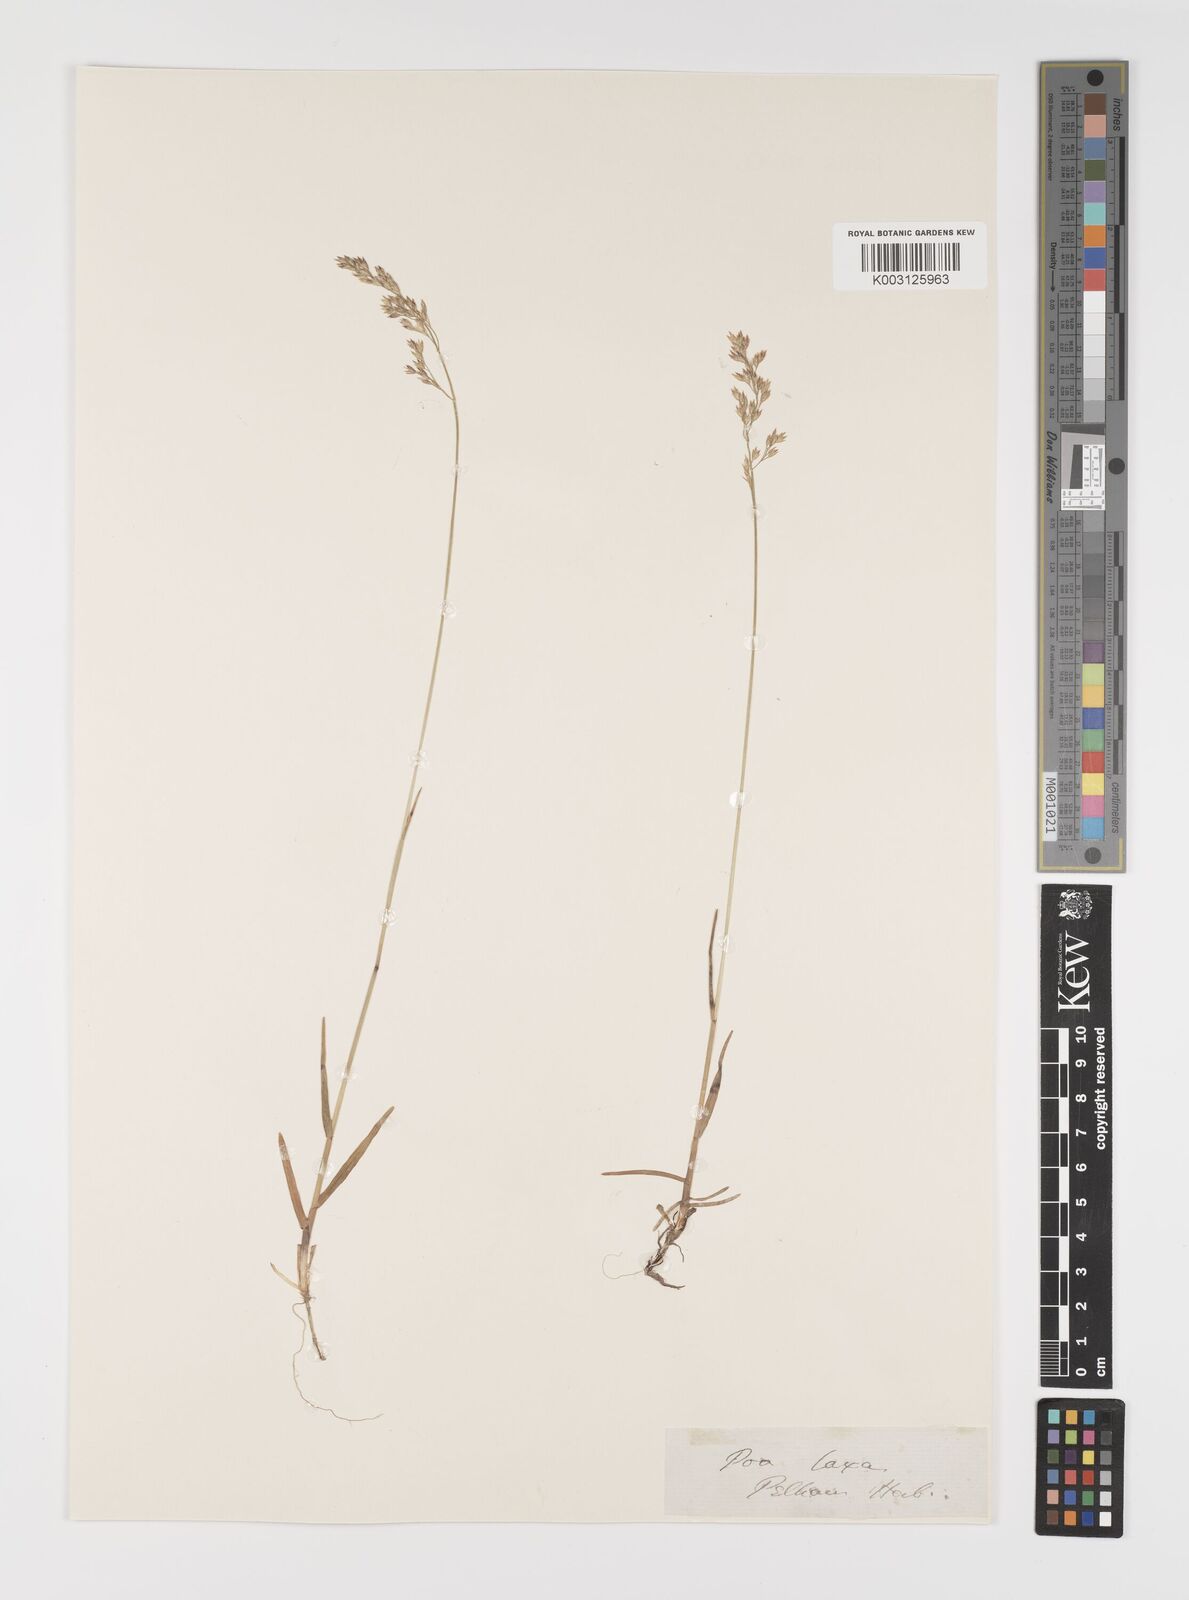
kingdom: Plantae
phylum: Tracheophyta
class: Liliopsida
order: Poales
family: Poaceae
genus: Poa
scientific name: Poa laxa
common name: Lax bluegrass
